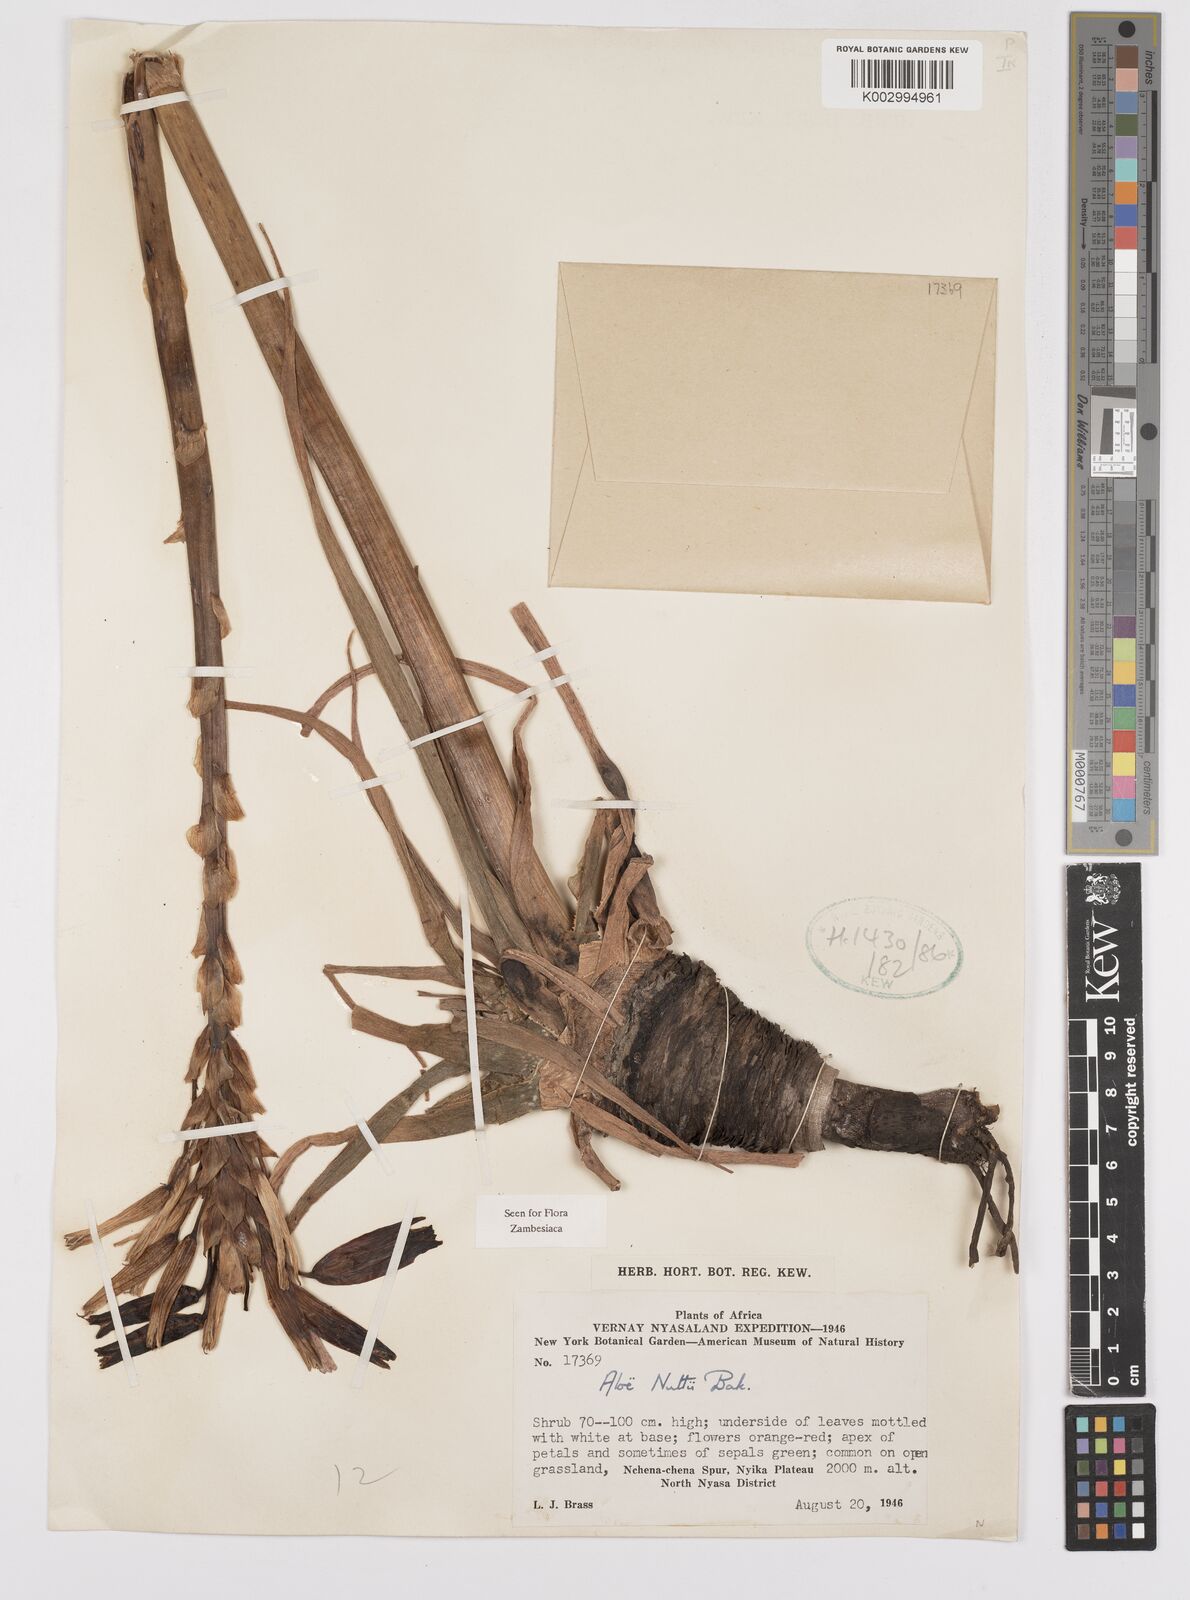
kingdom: Plantae
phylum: Tracheophyta
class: Liliopsida
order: Asparagales
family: Asphodelaceae
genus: Aloe
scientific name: Aloe nuttii
